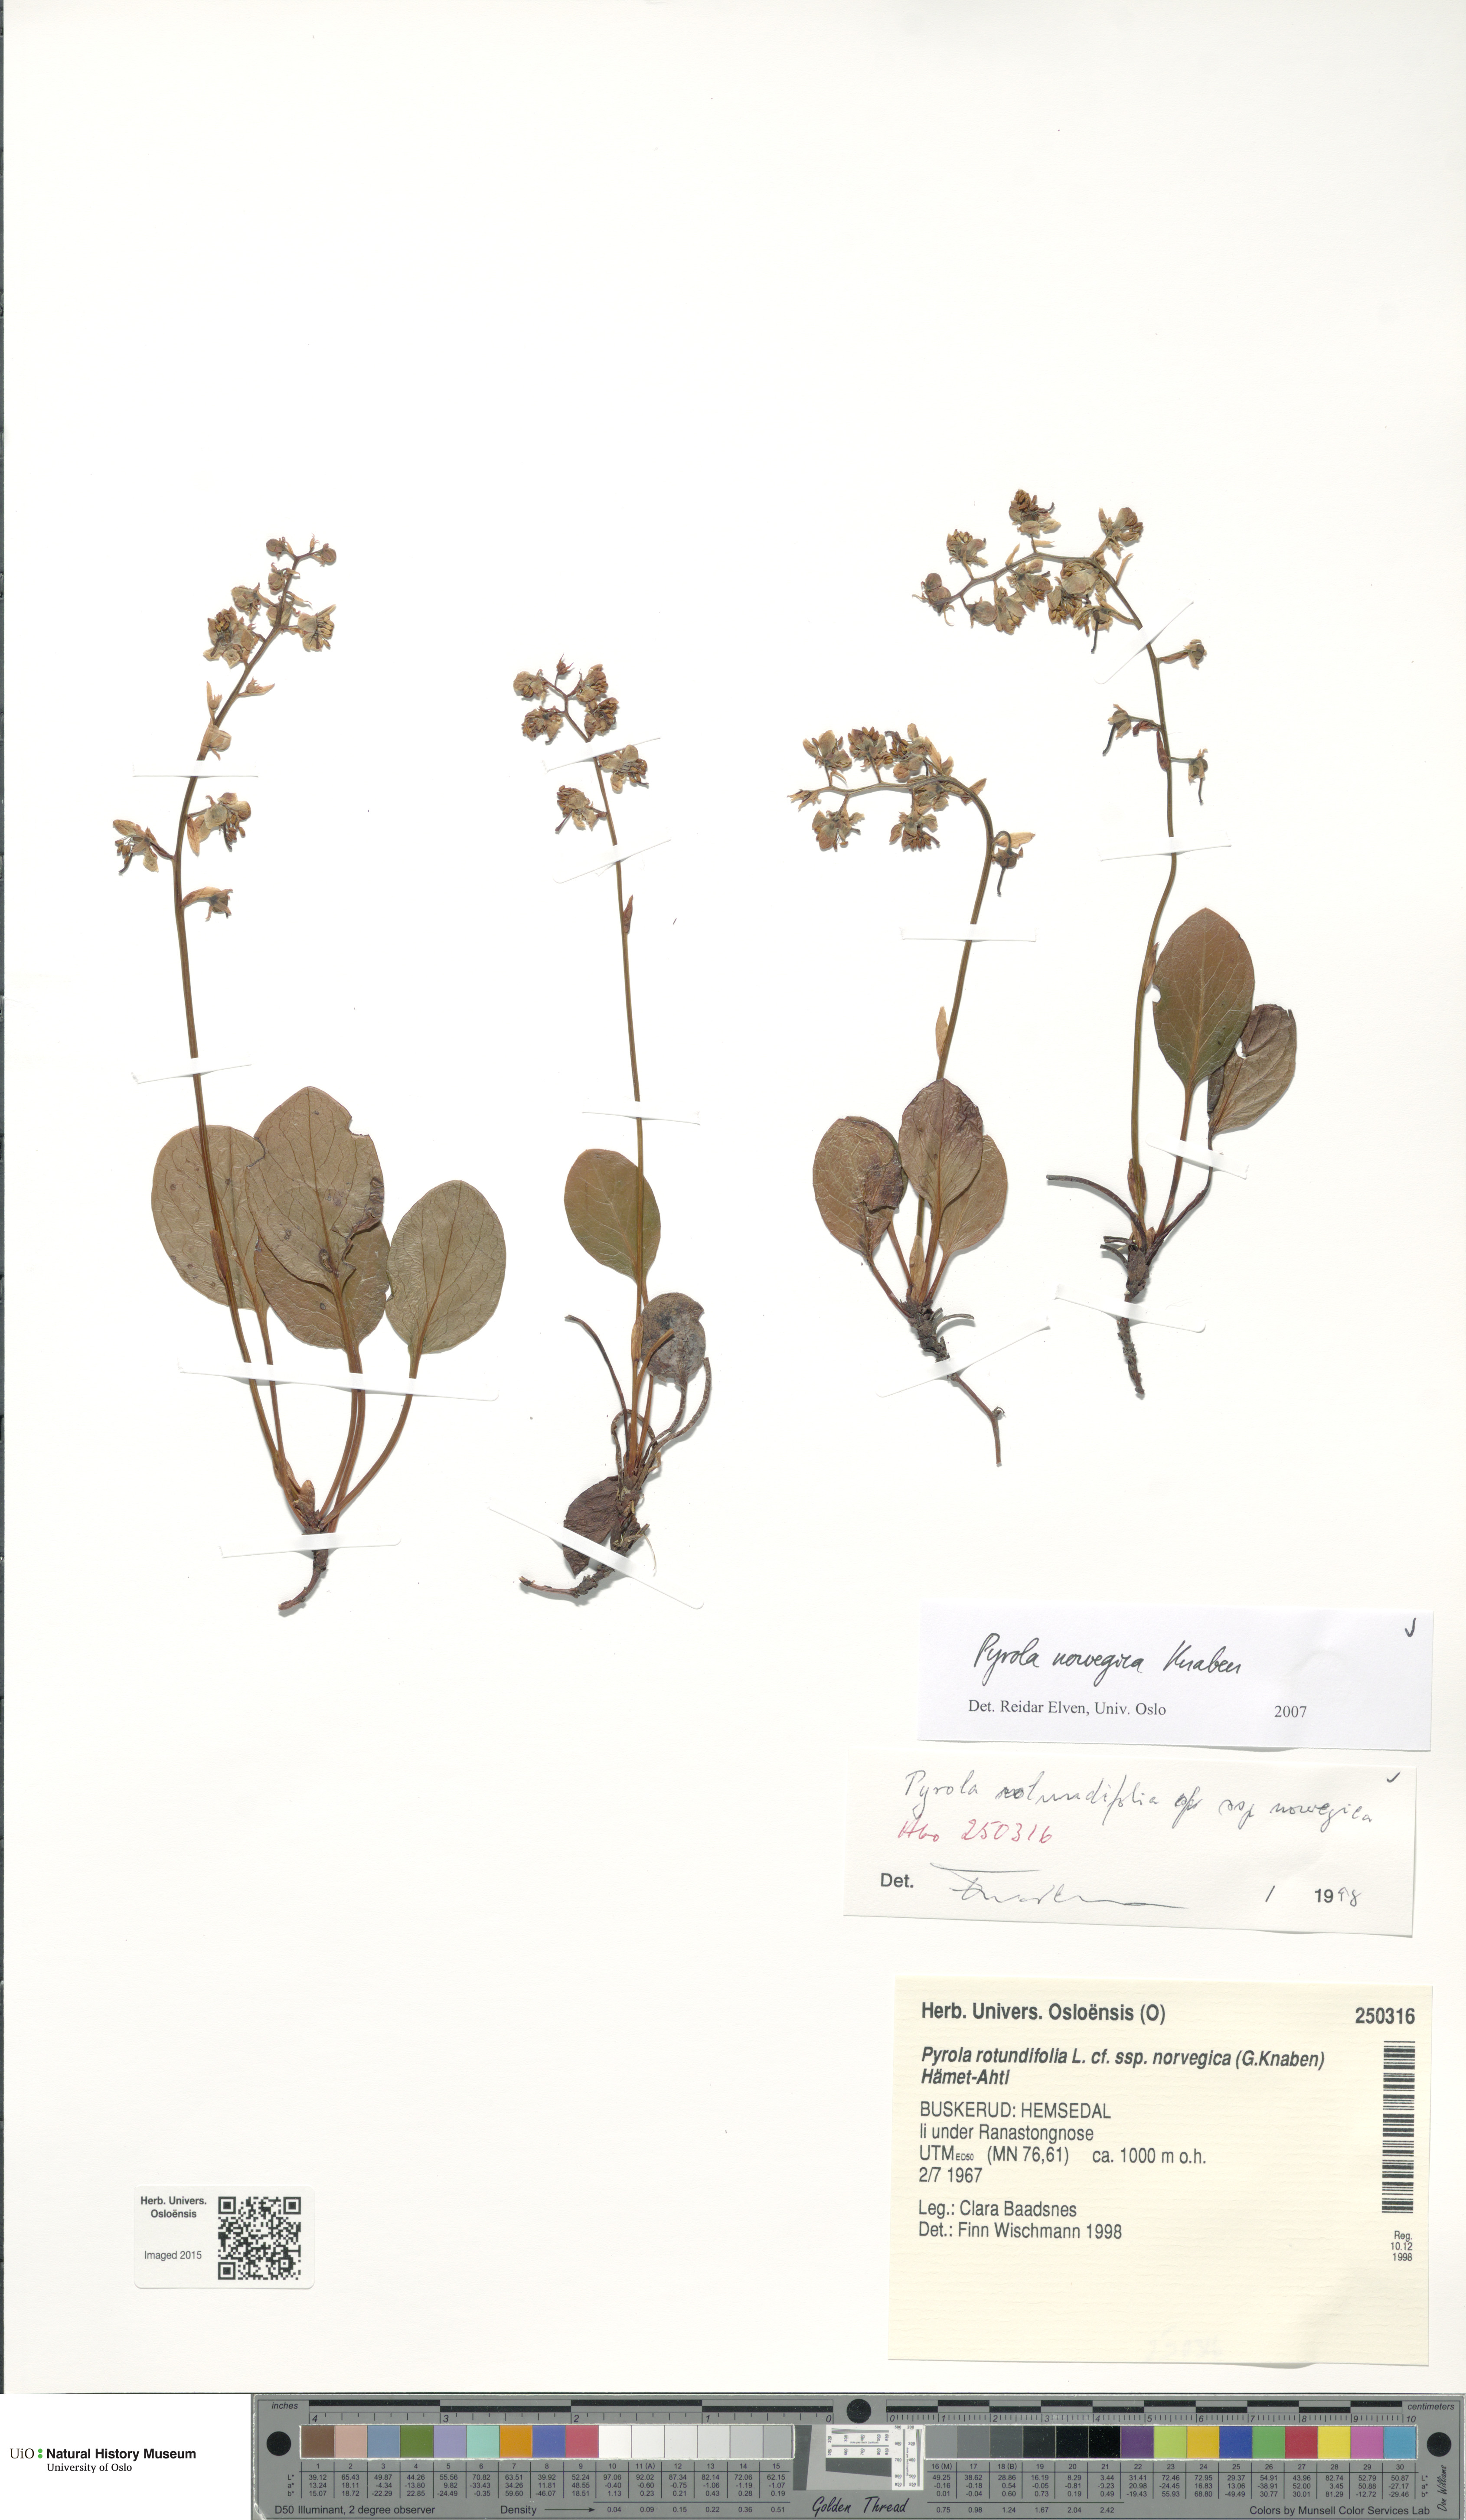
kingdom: Plantae
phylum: Tracheophyta
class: Magnoliopsida
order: Ericales
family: Ericaceae
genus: Pyrola
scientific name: Pyrola rotundifolia
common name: Round-leaved wintergreen
